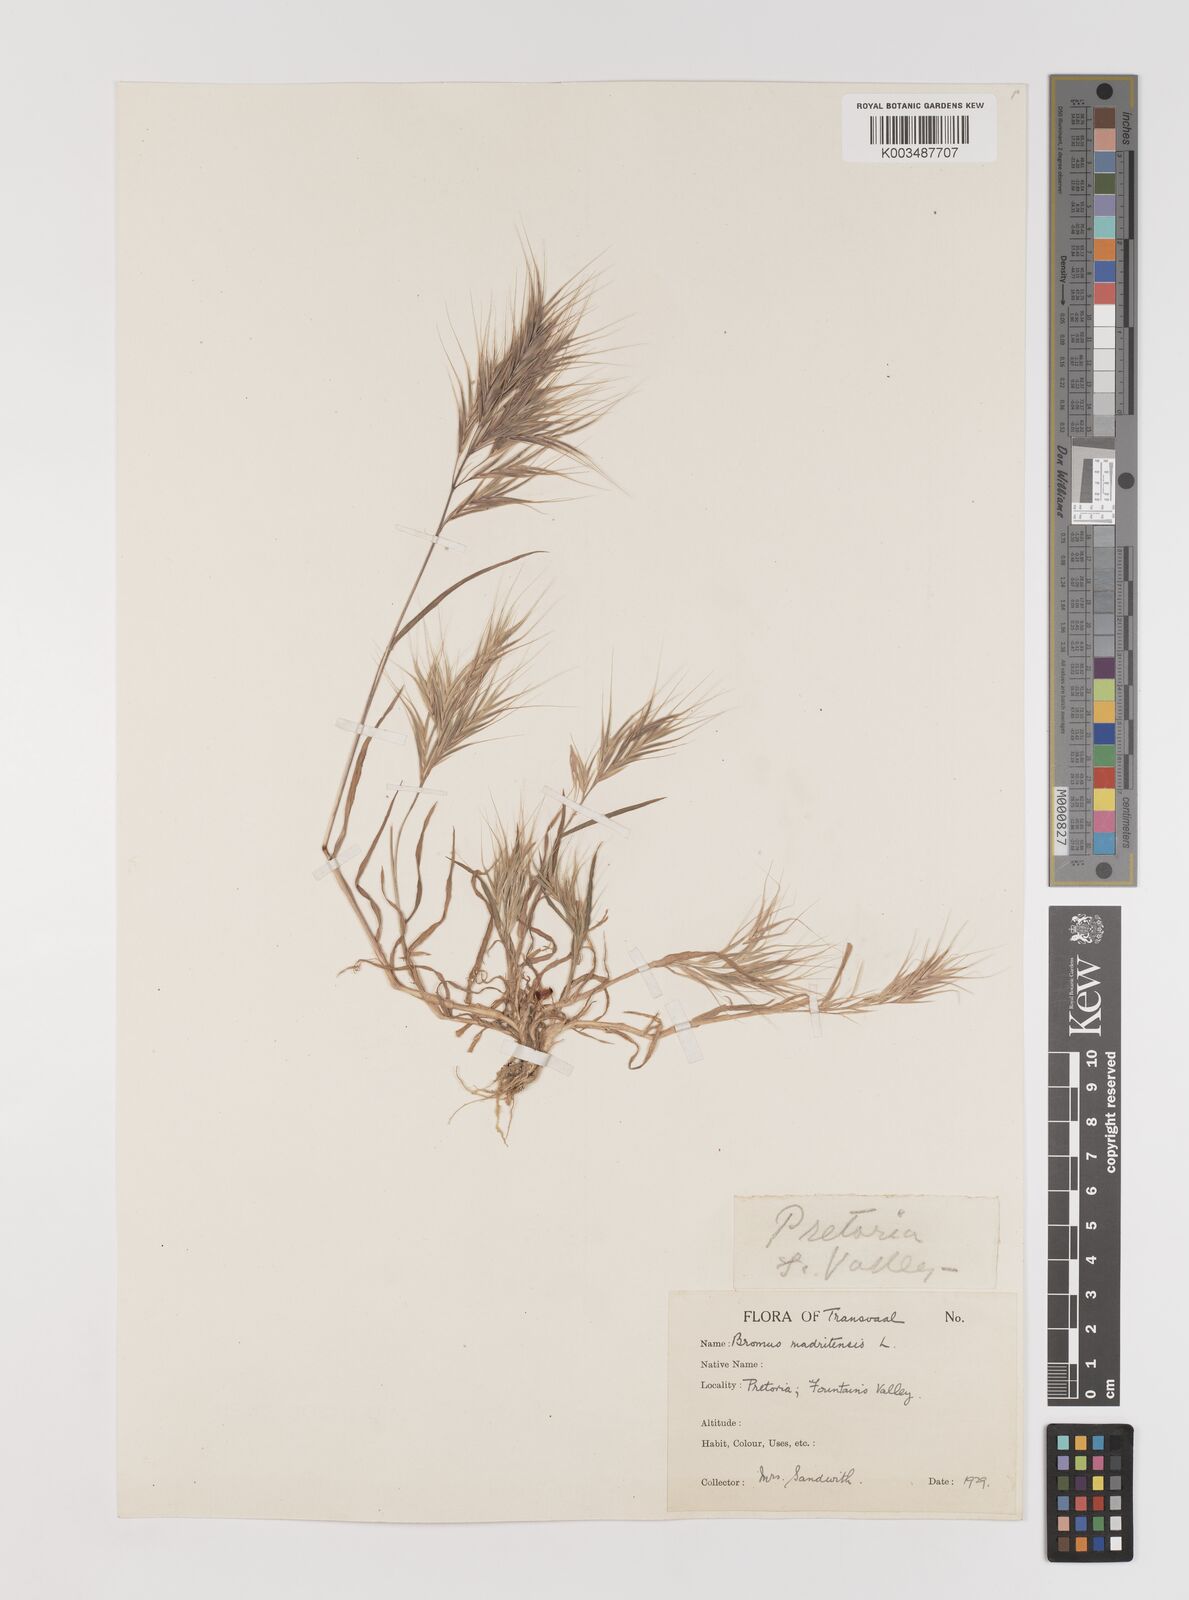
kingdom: Plantae
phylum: Tracheophyta
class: Liliopsida
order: Poales
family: Poaceae
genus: Bromus
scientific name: Bromus madritensis
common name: Compact brome
